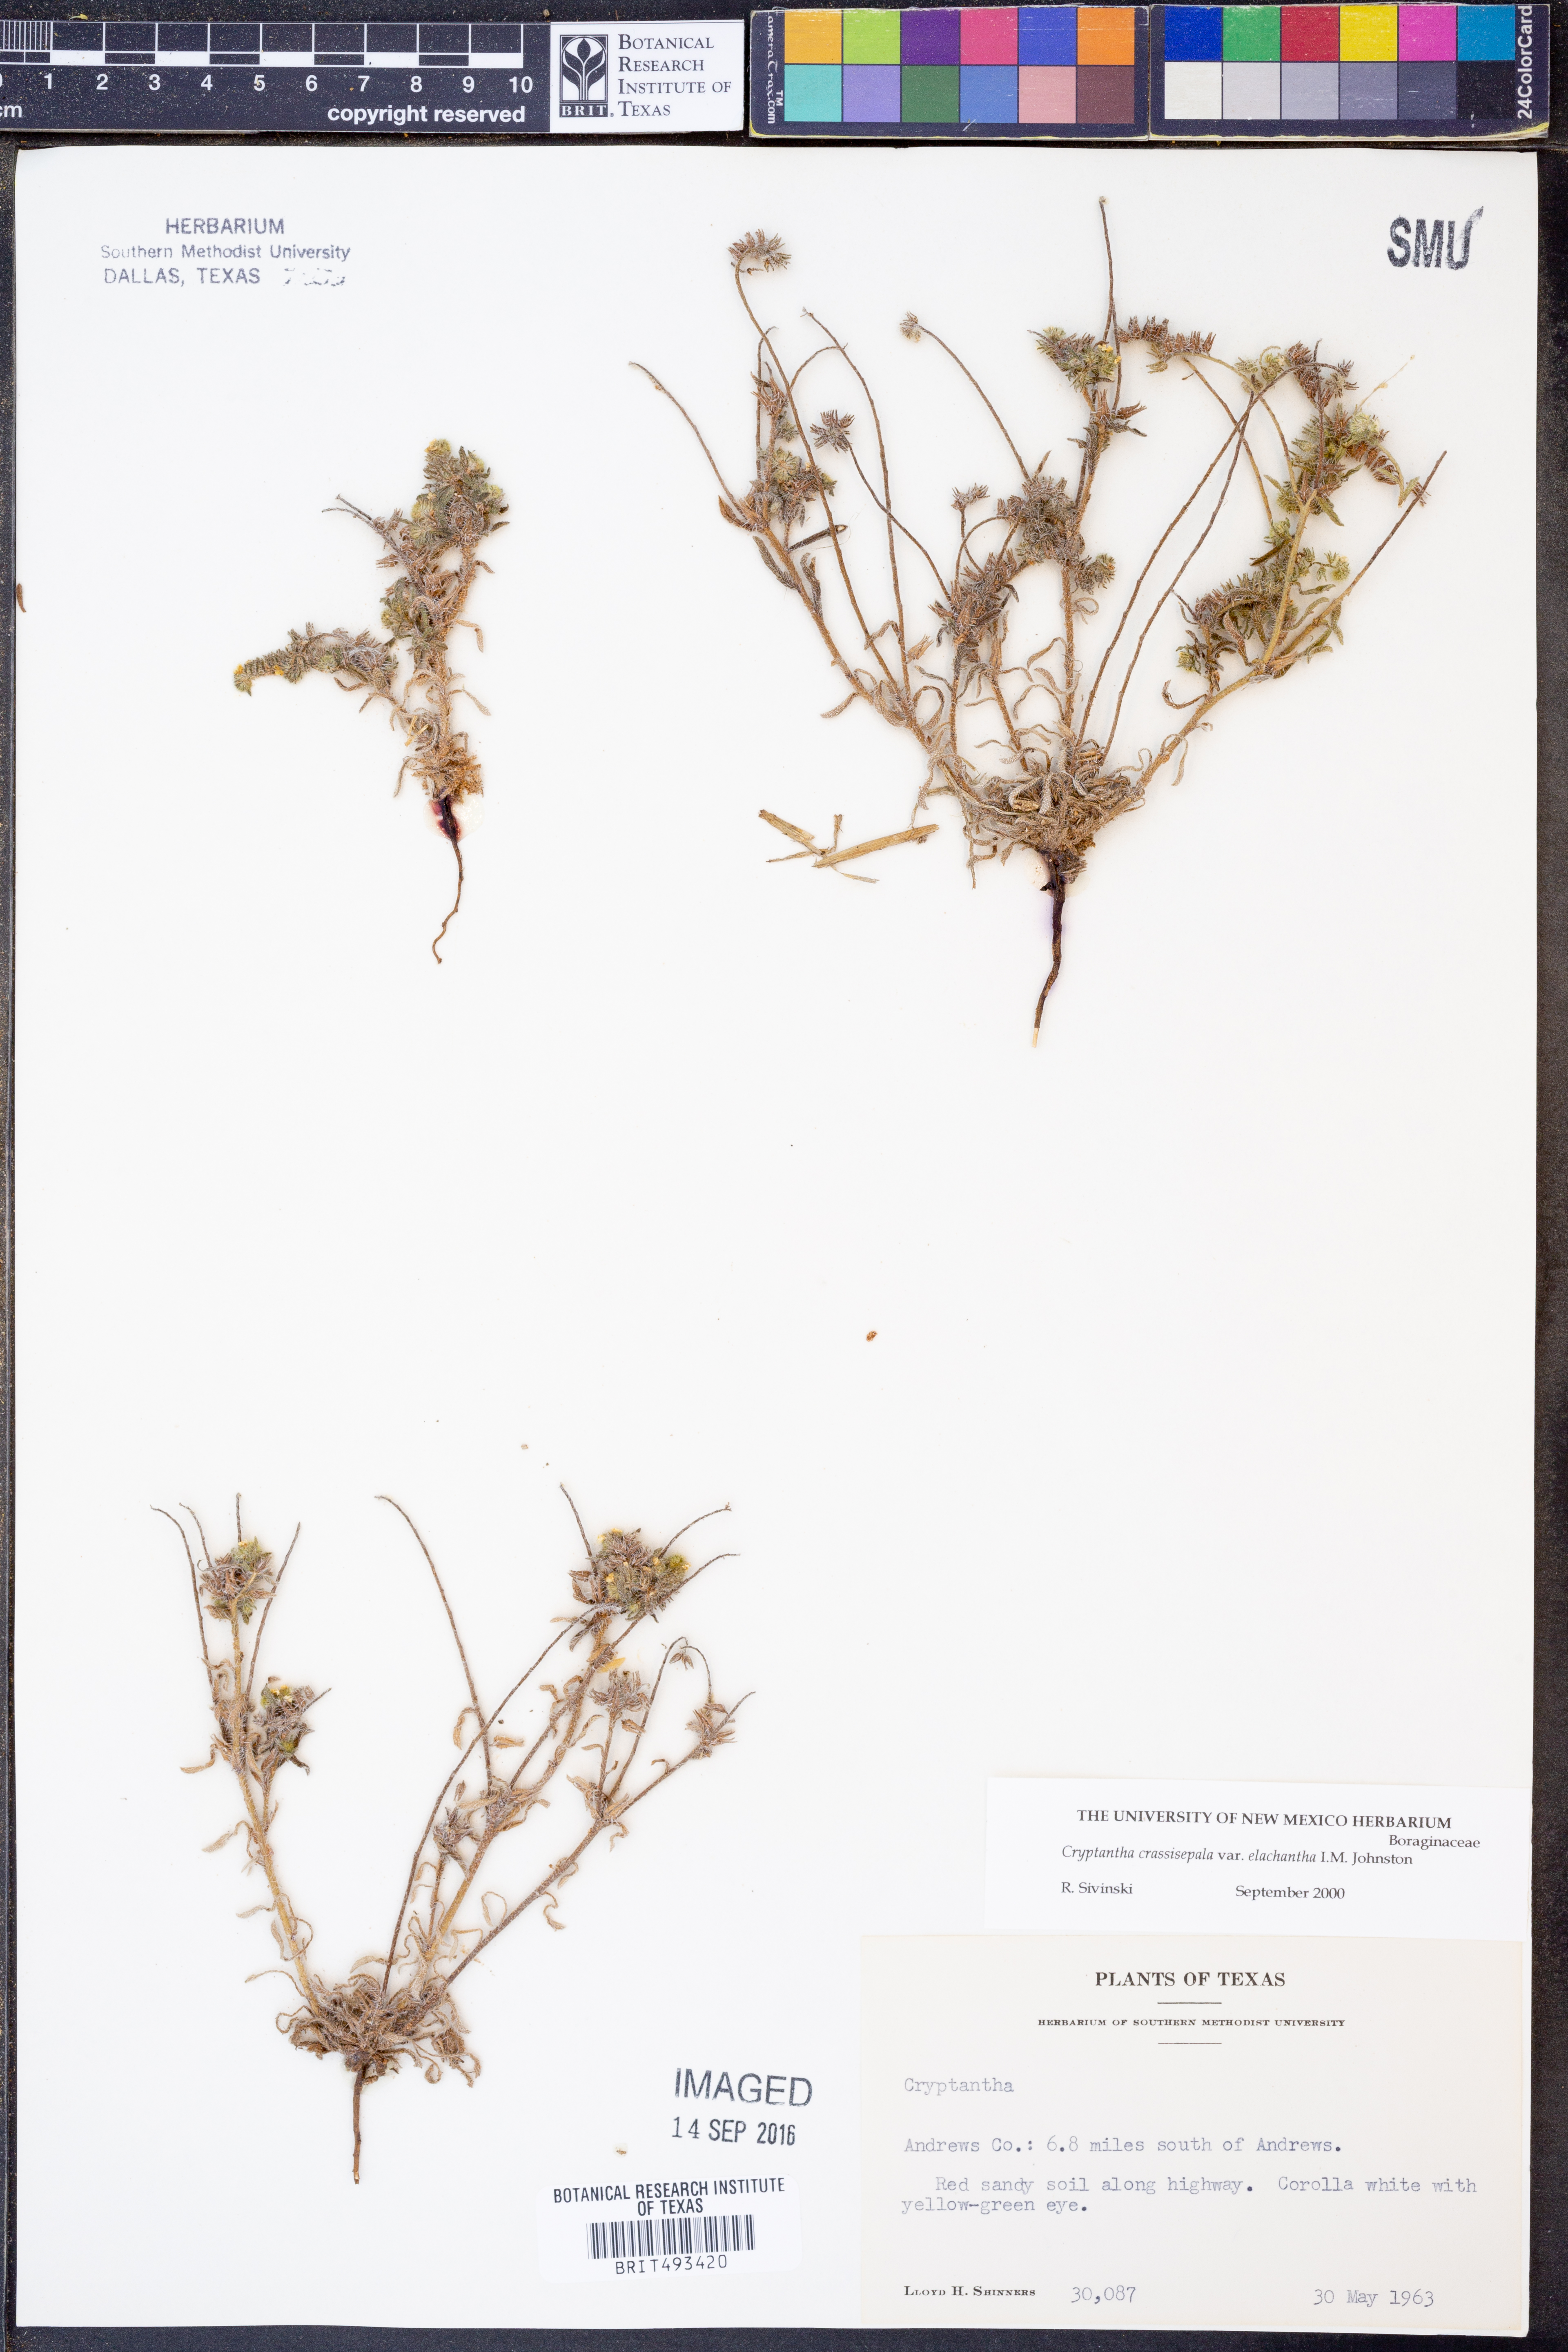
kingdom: Plantae
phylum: Tracheophyta
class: Magnoliopsida
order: Boraginales
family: Boraginaceae
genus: Cryptantha
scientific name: Cryptantha crassisepala
